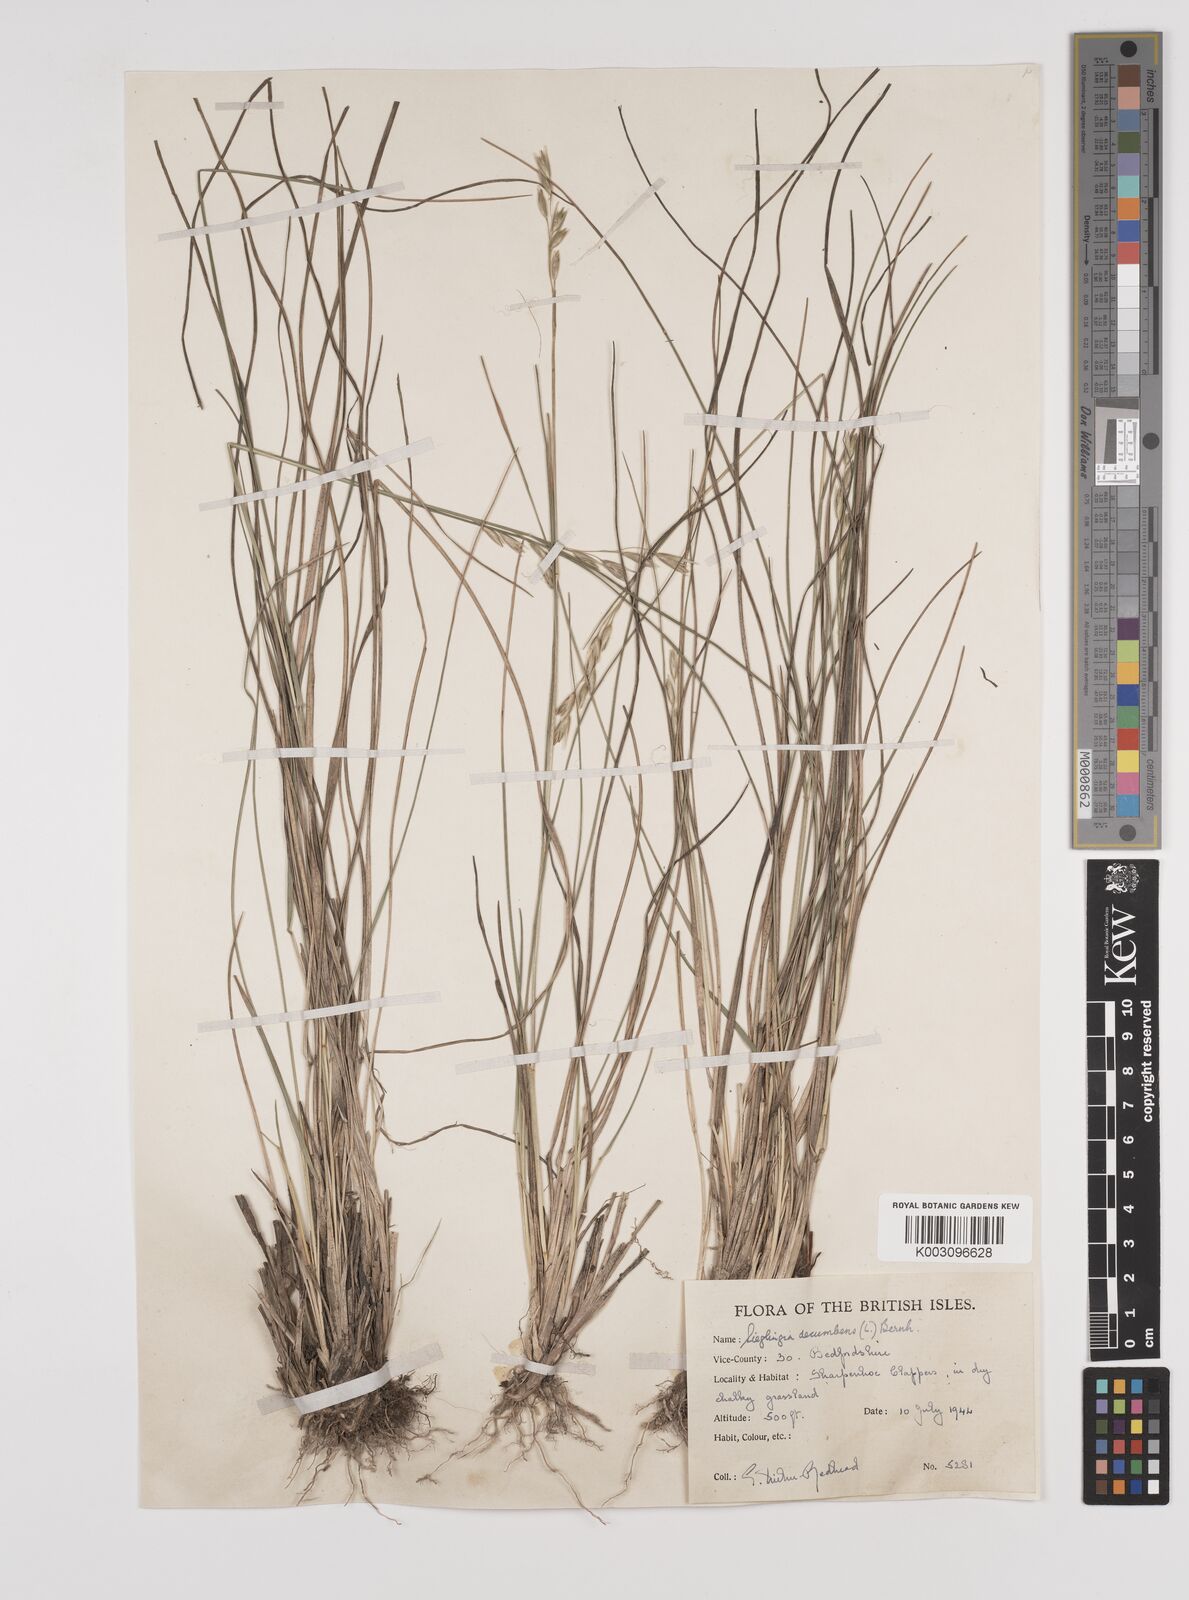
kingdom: Plantae
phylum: Tracheophyta
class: Liliopsida
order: Poales
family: Poaceae
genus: Danthonia
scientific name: Danthonia decumbens
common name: Common heathgrass
